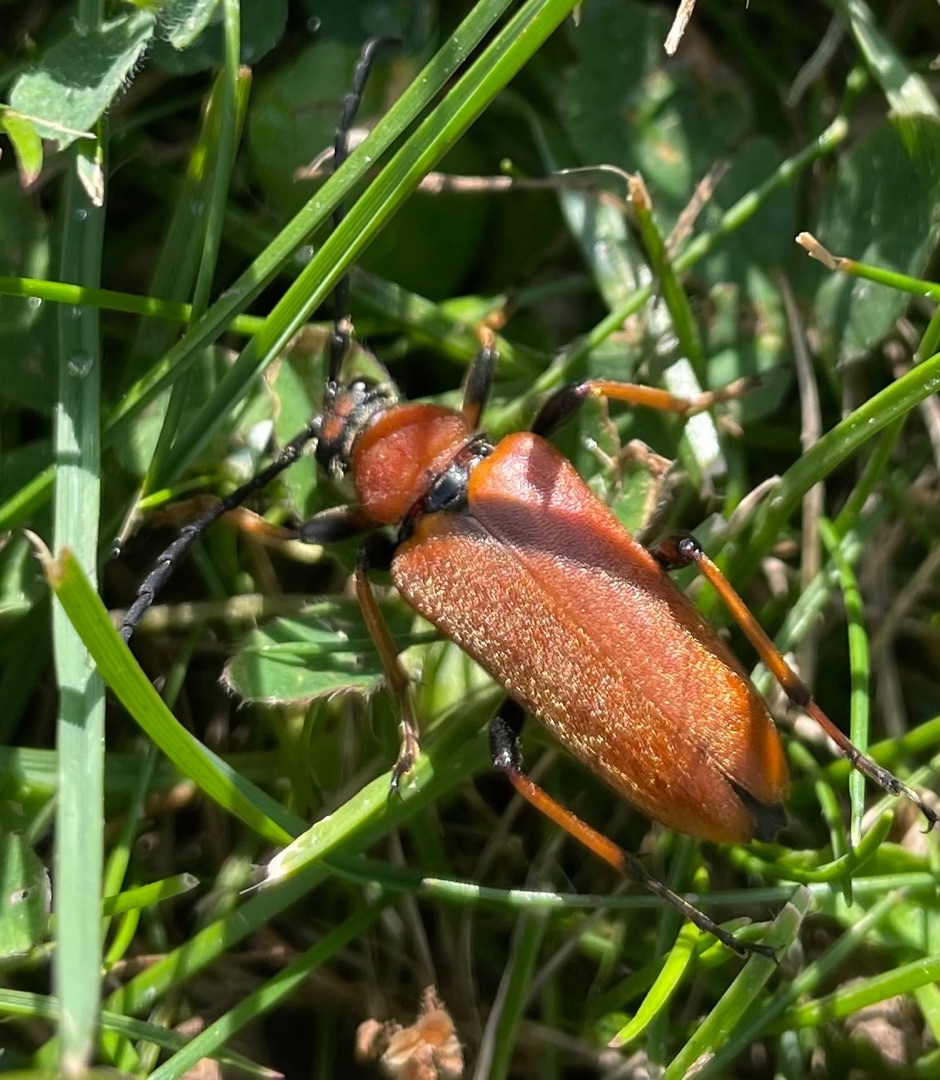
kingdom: Animalia
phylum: Arthropoda
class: Insecta
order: Coleoptera
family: Cerambycidae
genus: Stictoleptura
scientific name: Stictoleptura rubra
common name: Rød blomsterbuk
